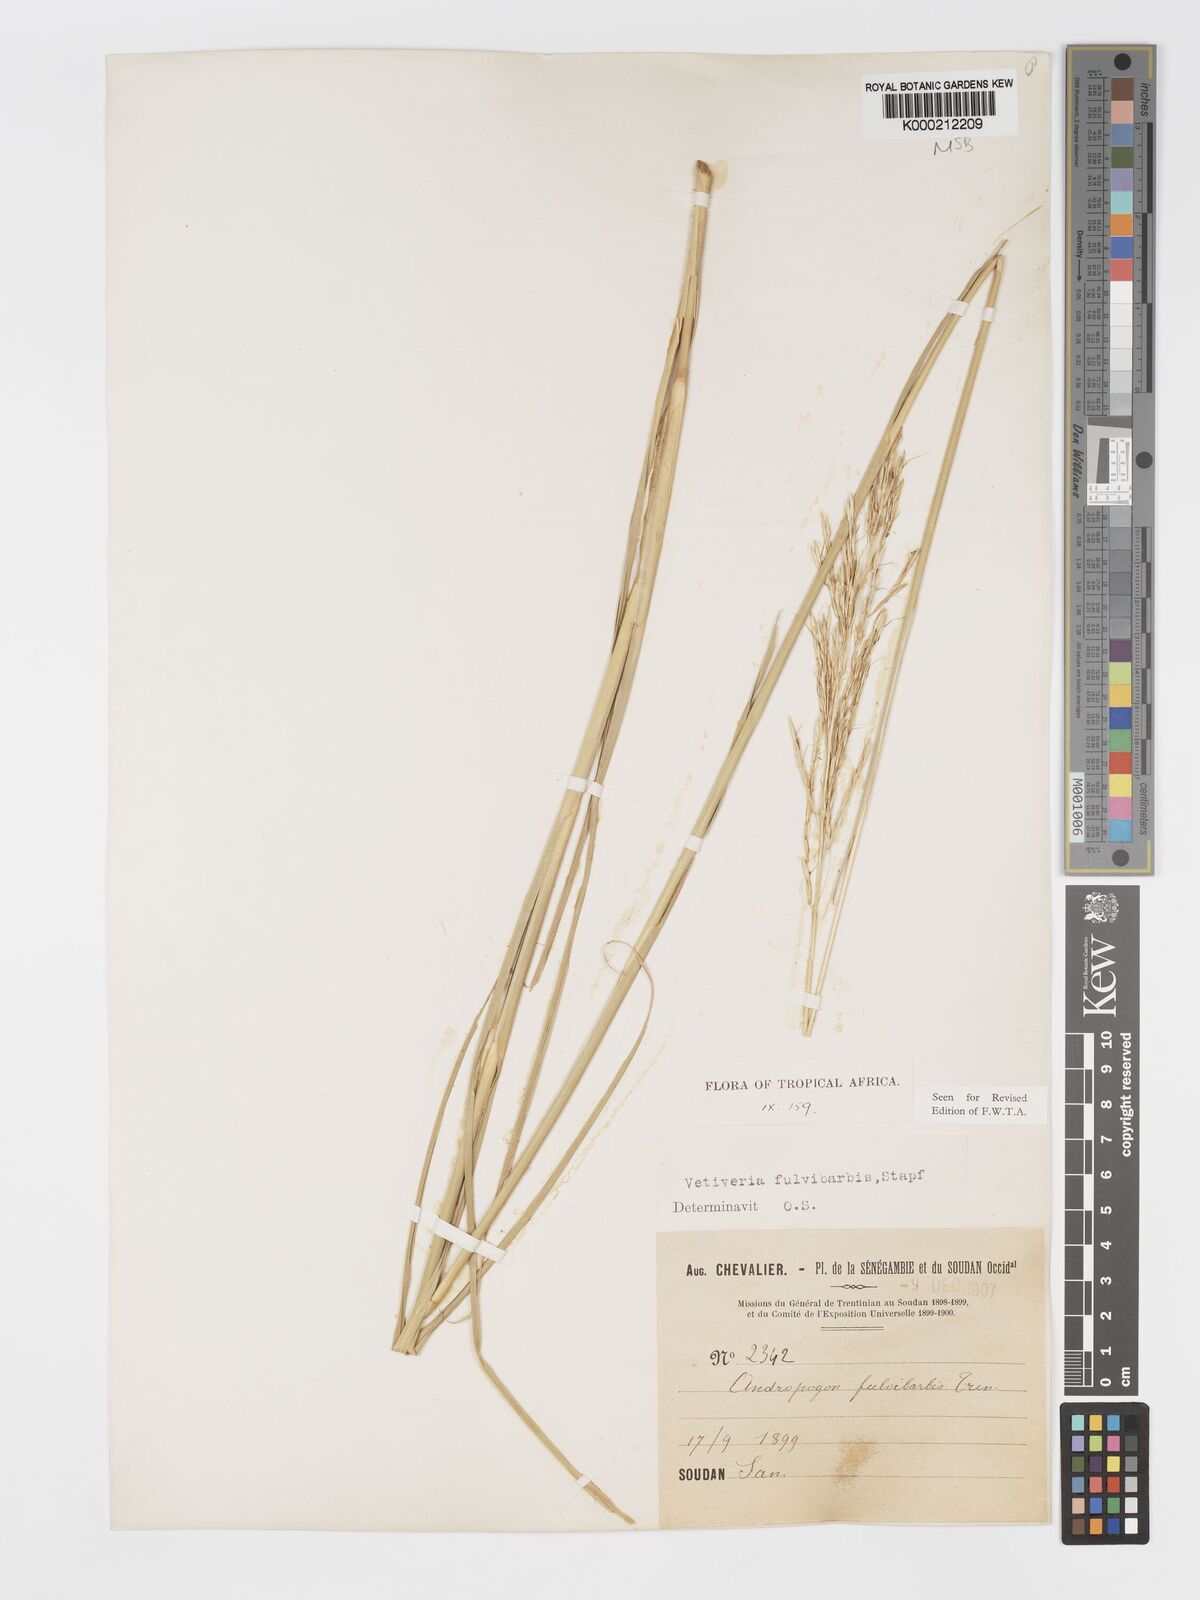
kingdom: Plantae
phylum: Tracheophyta
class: Liliopsida
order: Poales
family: Poaceae
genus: Chrysopogon
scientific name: Chrysopogon fulvibarbis
